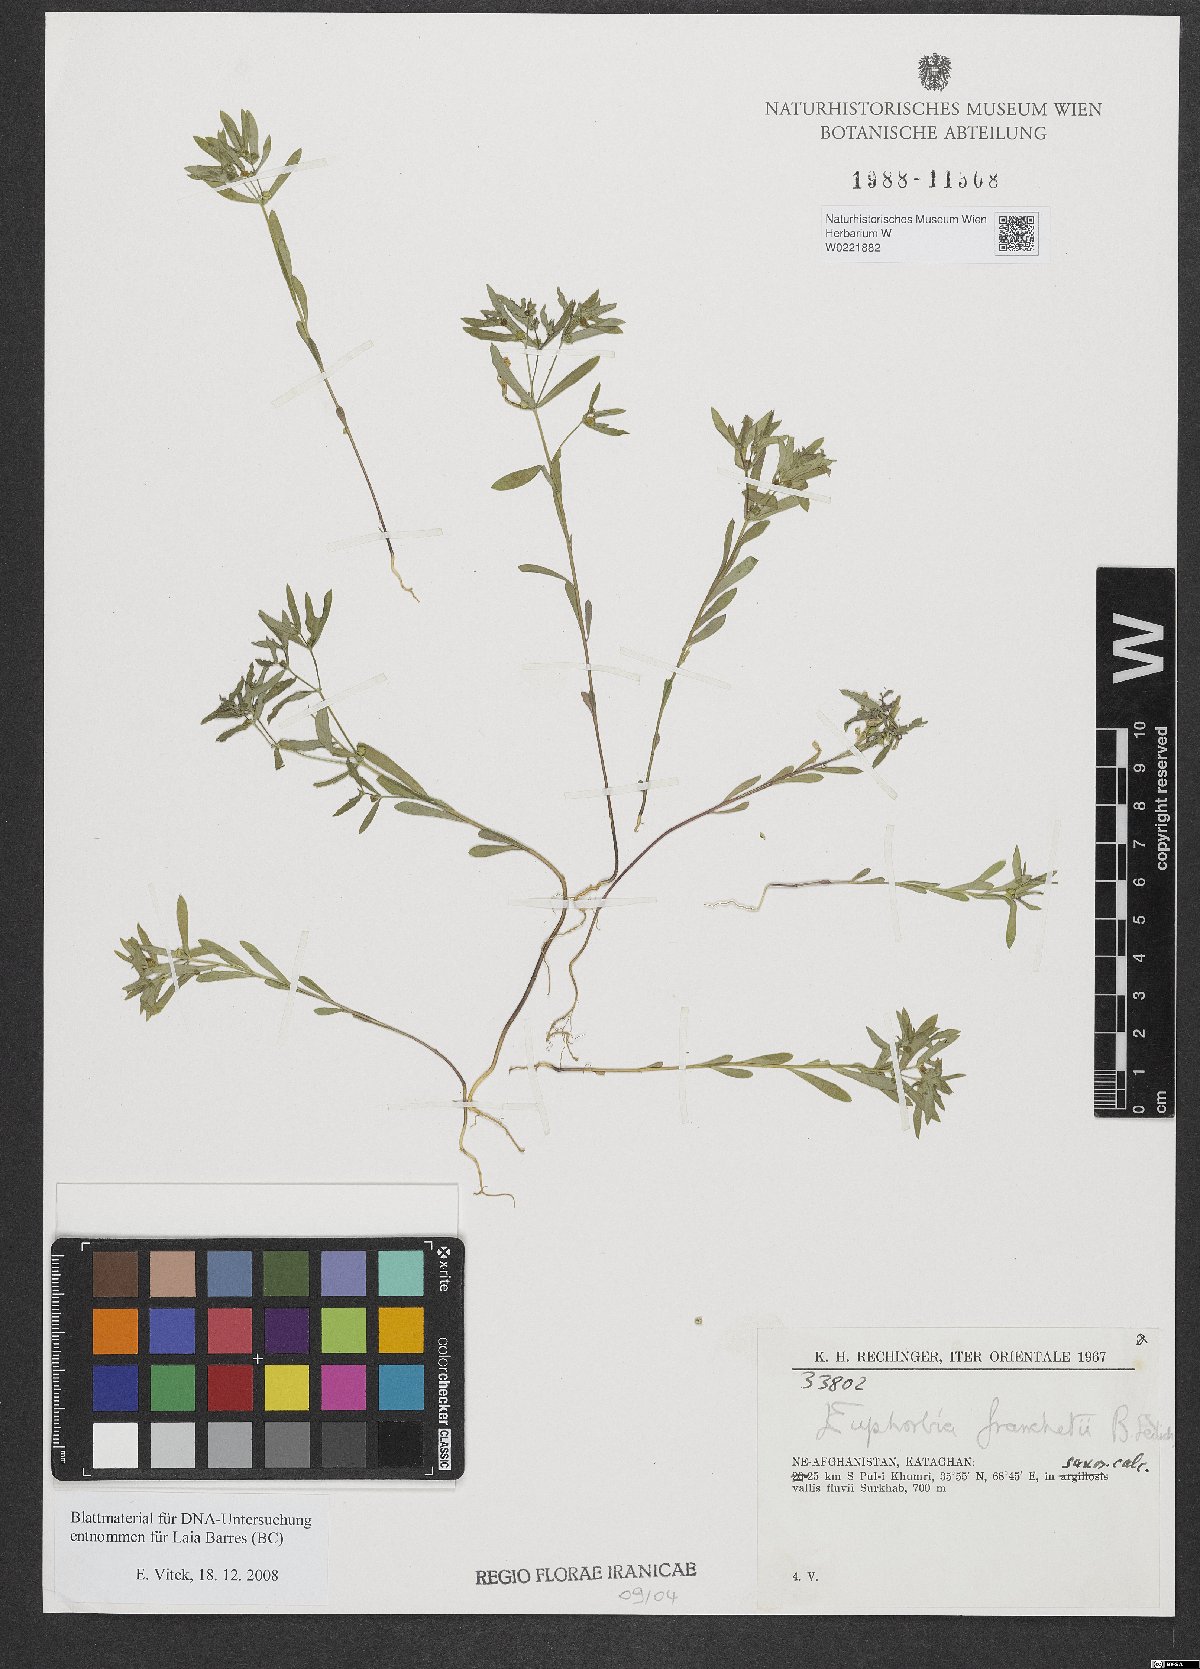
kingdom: Plantae
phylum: Tracheophyta
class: Magnoliopsida
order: Malpighiales
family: Euphorbiaceae
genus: Euphorbia
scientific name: Euphorbia franchetii
